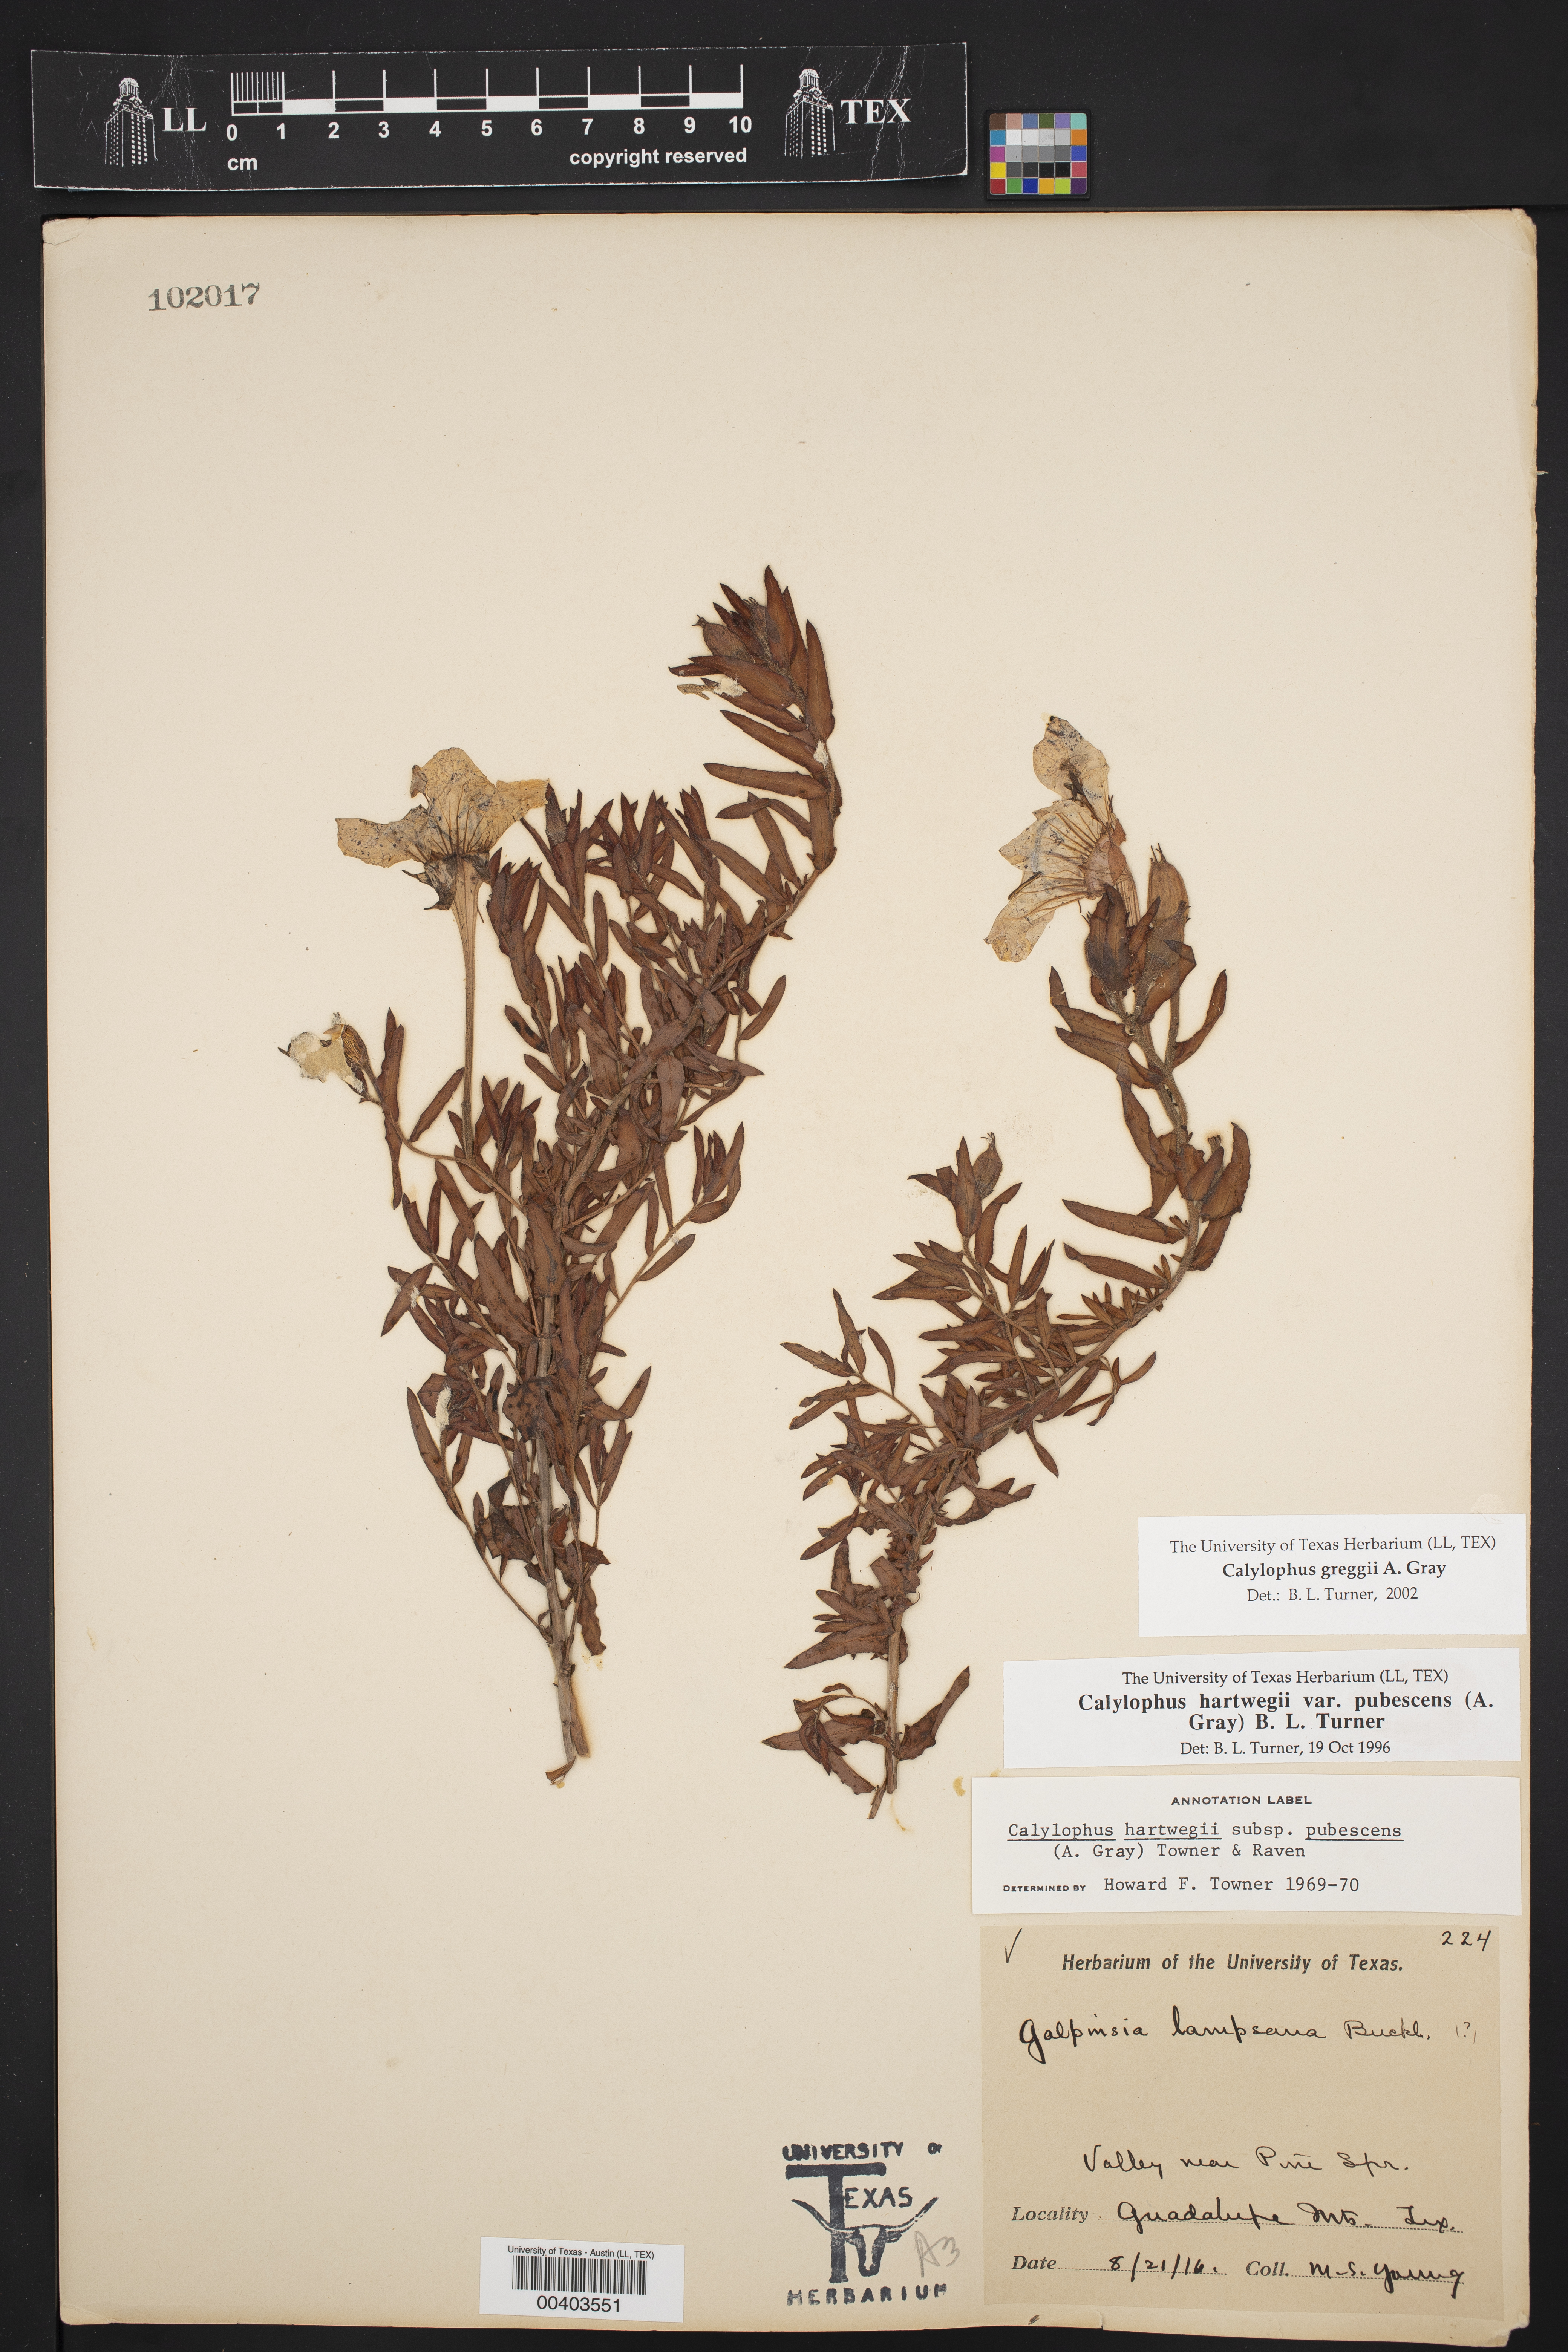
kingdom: Plantae
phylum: Tracheophyta
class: Magnoliopsida
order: Myrtales
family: Onagraceae
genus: Oenothera
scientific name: Oenothera hartwegii
